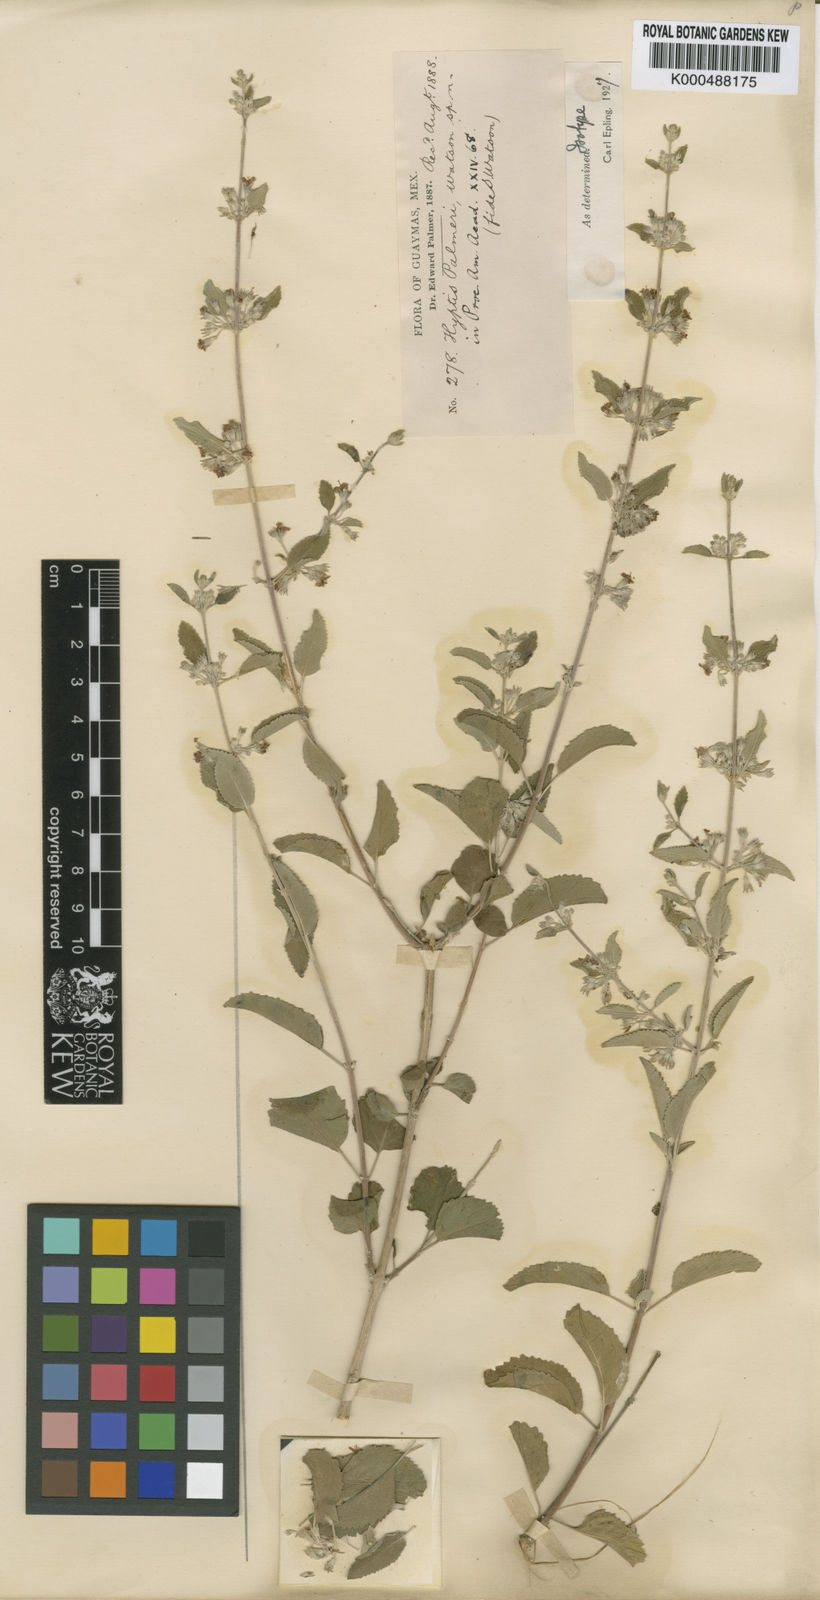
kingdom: Plantae
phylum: Tracheophyta
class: Magnoliopsida
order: Lamiales
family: Lamiaceae
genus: Condea
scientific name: Condea emoryi
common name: Chia
